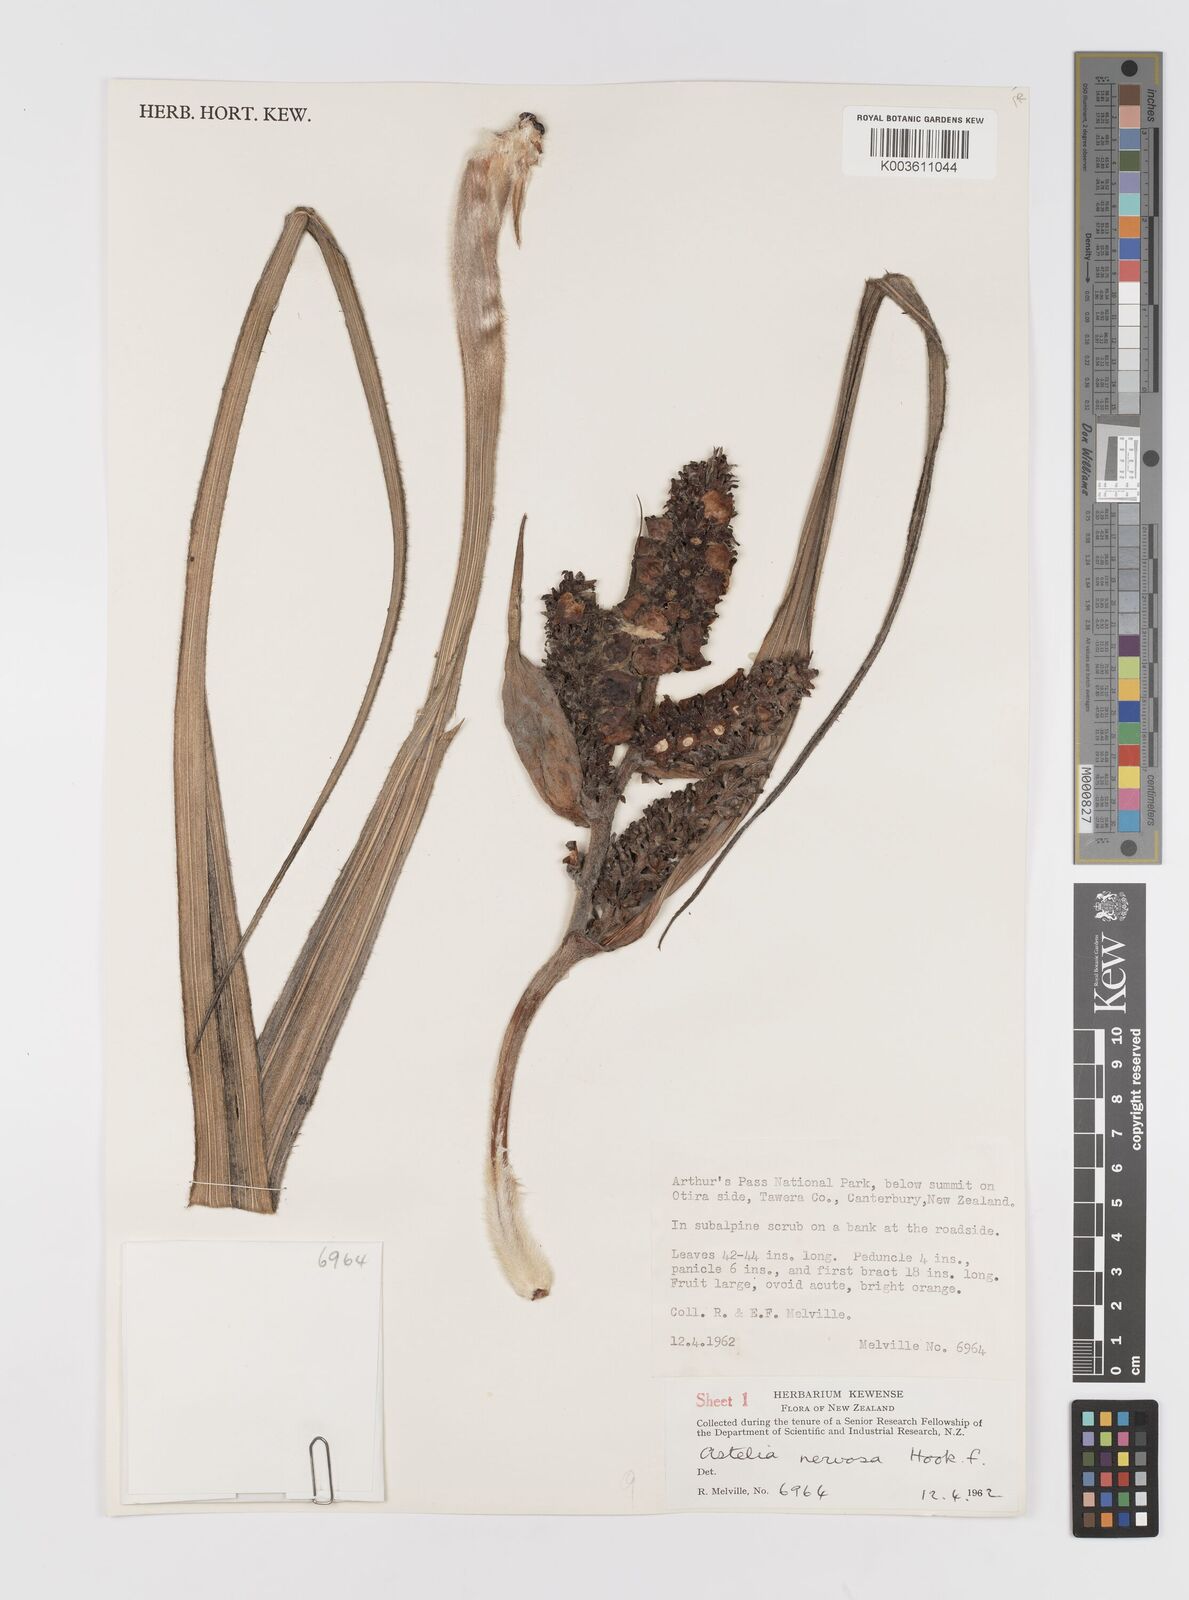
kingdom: Plantae
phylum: Tracheophyta
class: Liliopsida
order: Asparagales
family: Asteliaceae
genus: Astelia
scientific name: Astelia nervosa
